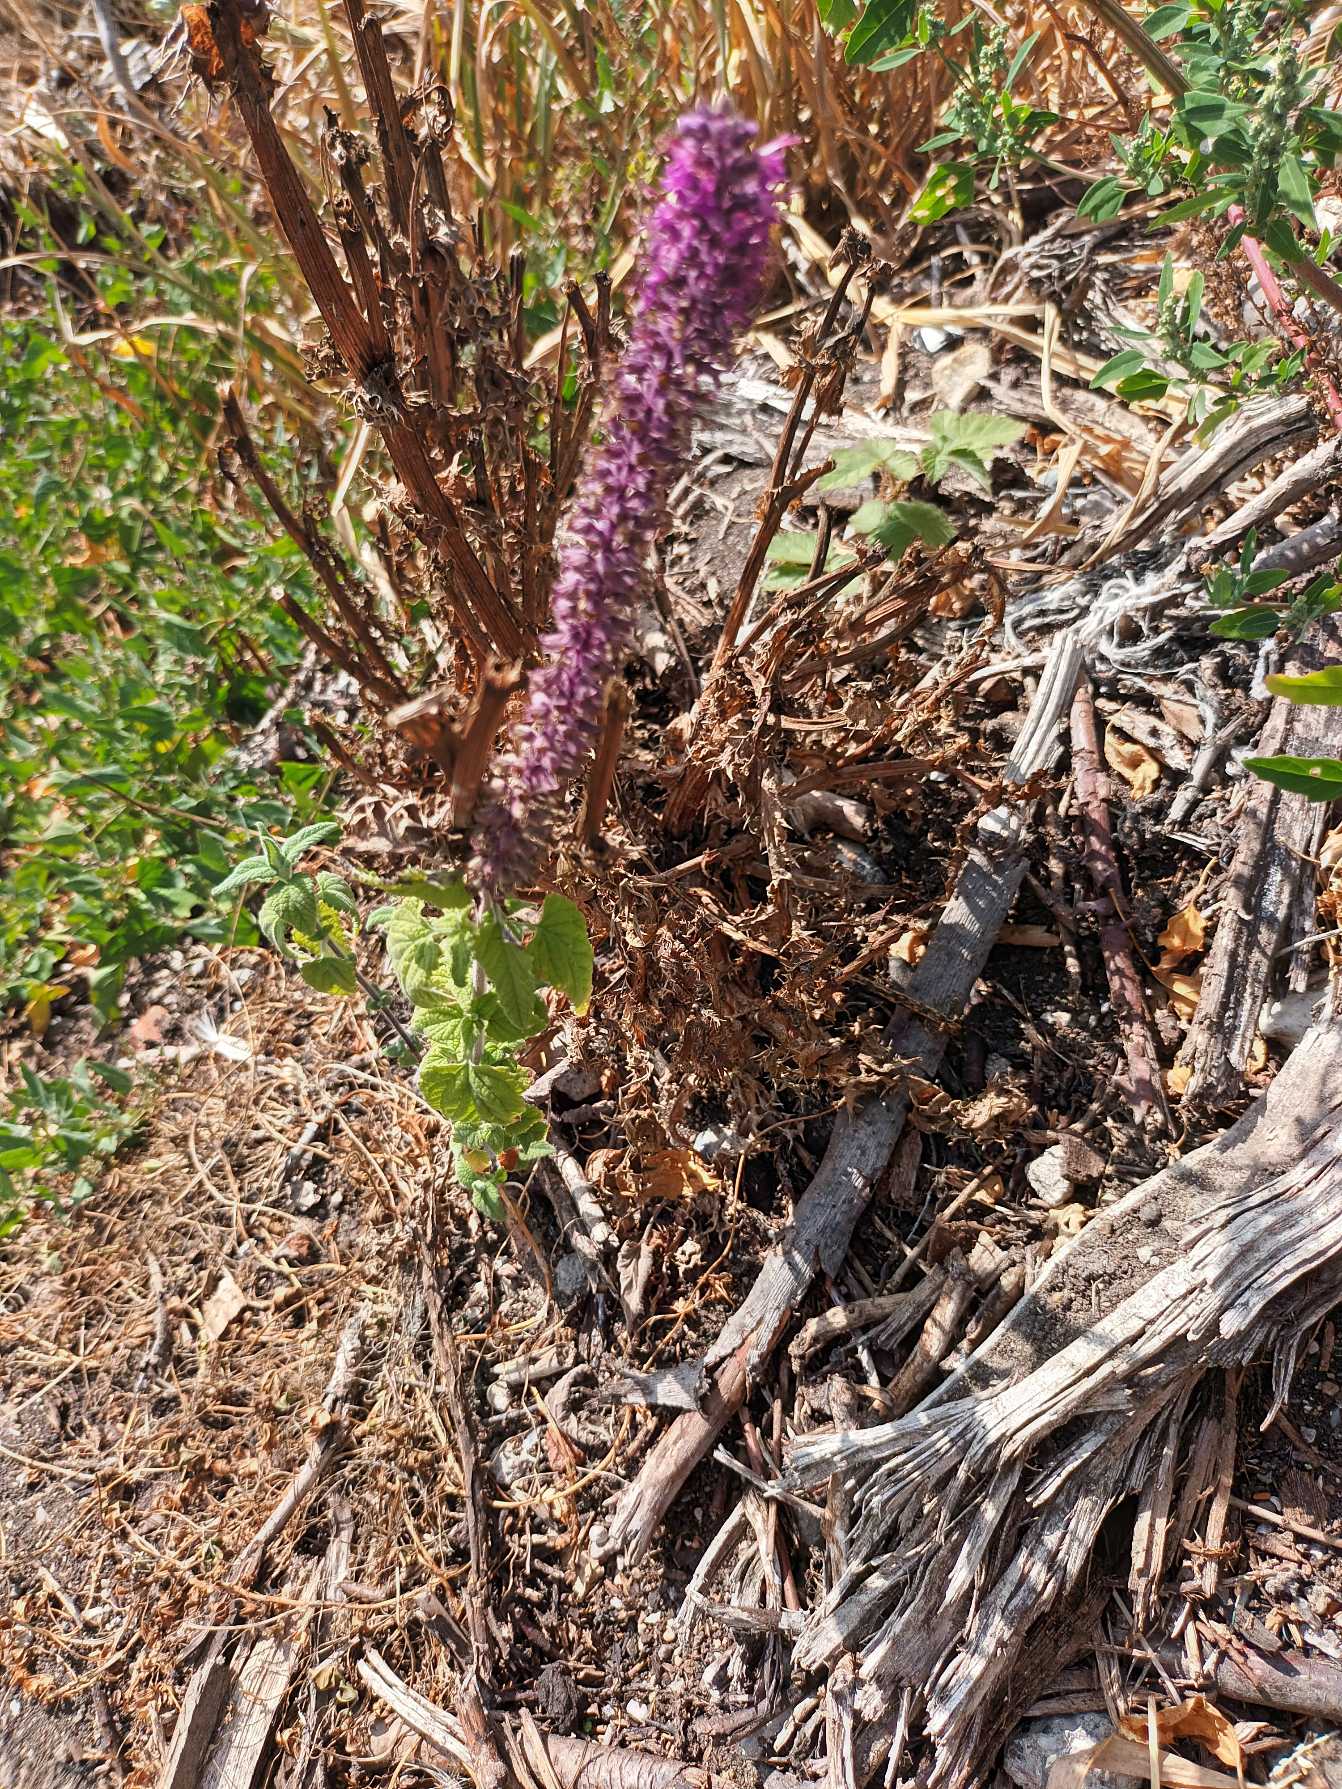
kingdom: Plantae
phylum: Tracheophyta
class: Magnoliopsida
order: Lamiales
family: Lamiaceae
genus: Agastache
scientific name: Agastache rugosa
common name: Koreansk anisisop
